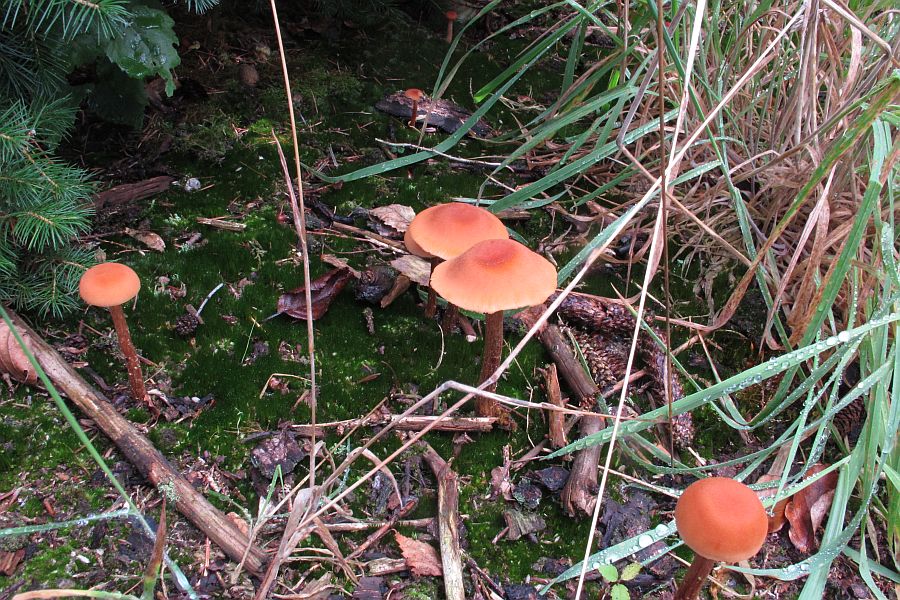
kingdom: Fungi
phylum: Basidiomycota
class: Agaricomycetes
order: Agaricales
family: Hydnangiaceae
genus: Laccaria
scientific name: Laccaria proxima
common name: stor ametysthat
